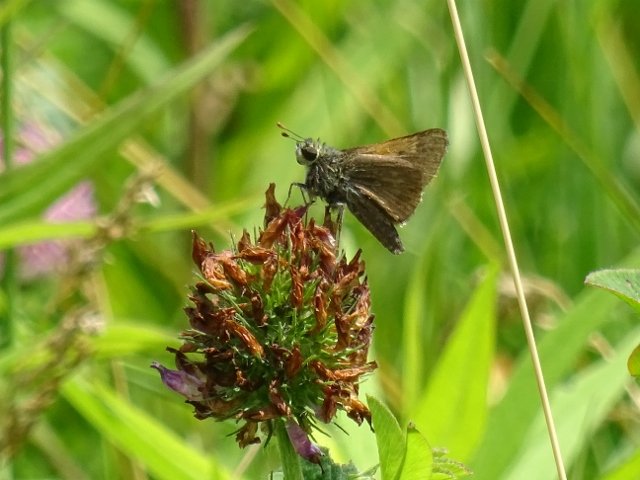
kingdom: Animalia
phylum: Arthropoda
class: Insecta
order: Lepidoptera
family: Hesperiidae
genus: Polites
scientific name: Polites themistocles
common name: Tawny-edged Skipper
